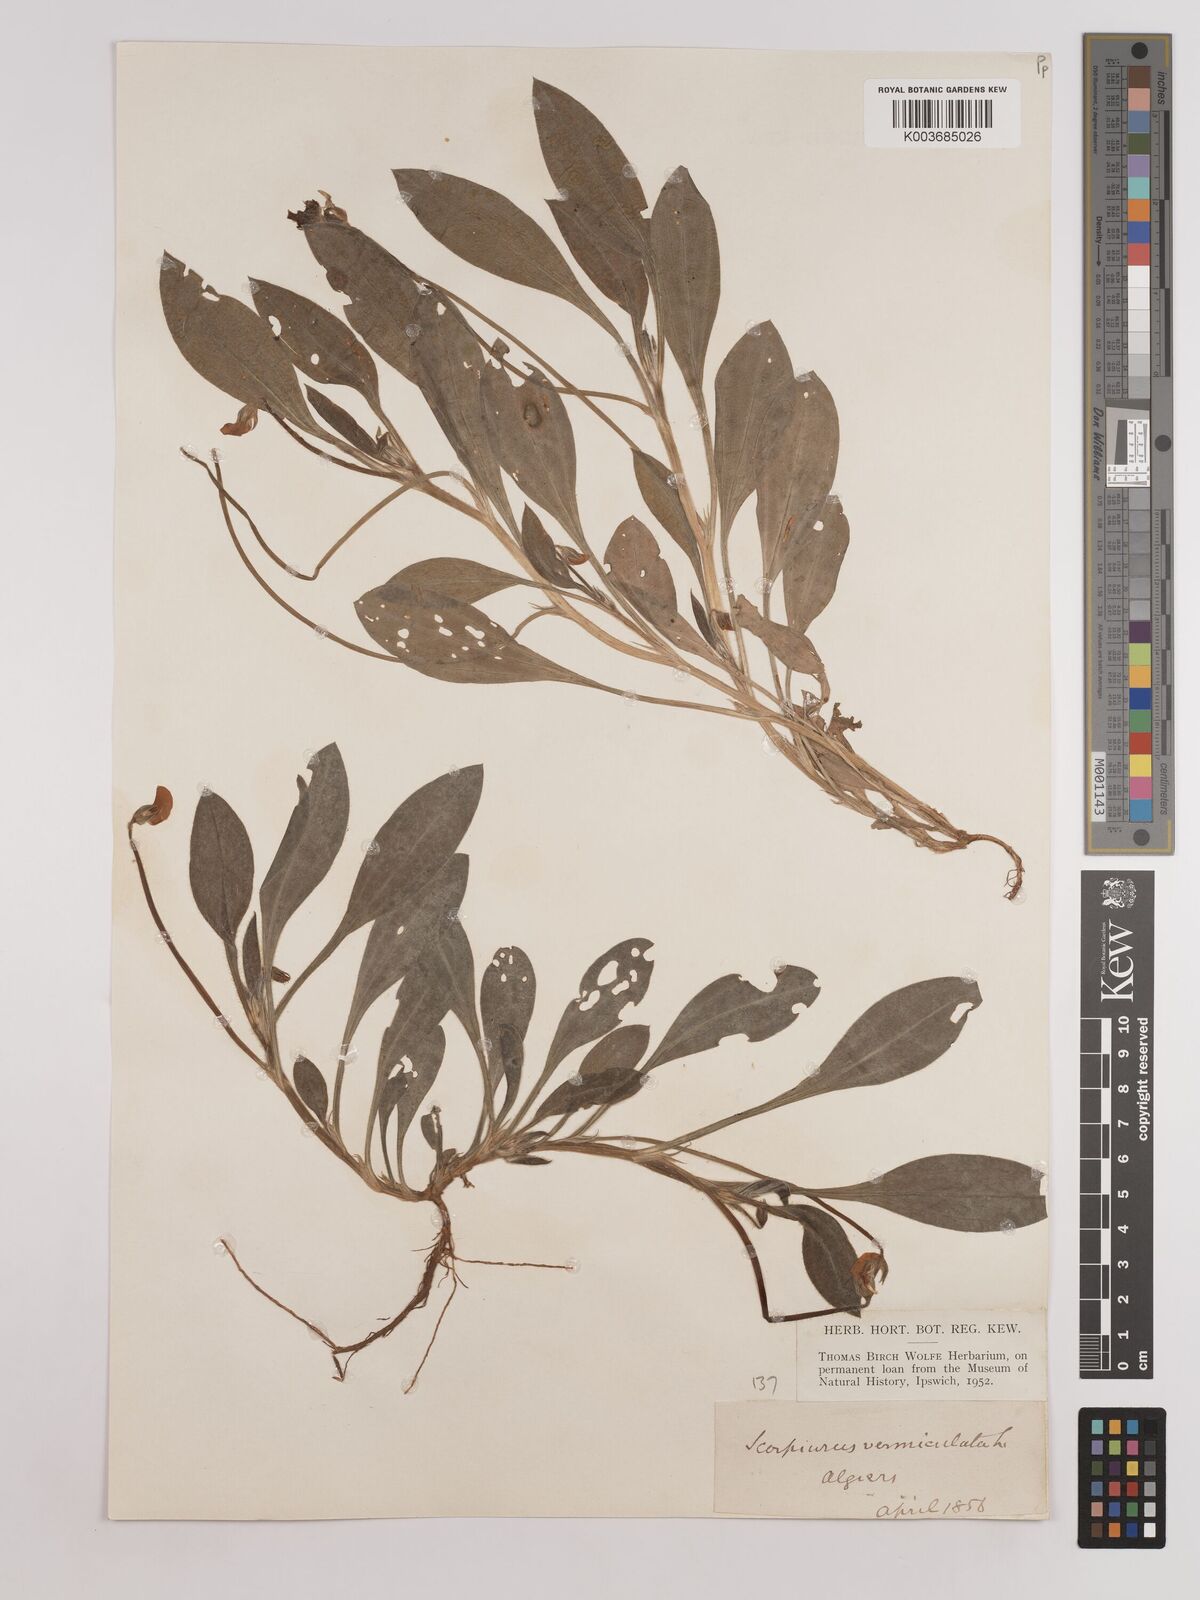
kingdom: Plantae
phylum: Tracheophyta
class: Magnoliopsida
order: Fabales
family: Fabaceae
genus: Scorpiurus
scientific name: Scorpiurus vermiculatus
